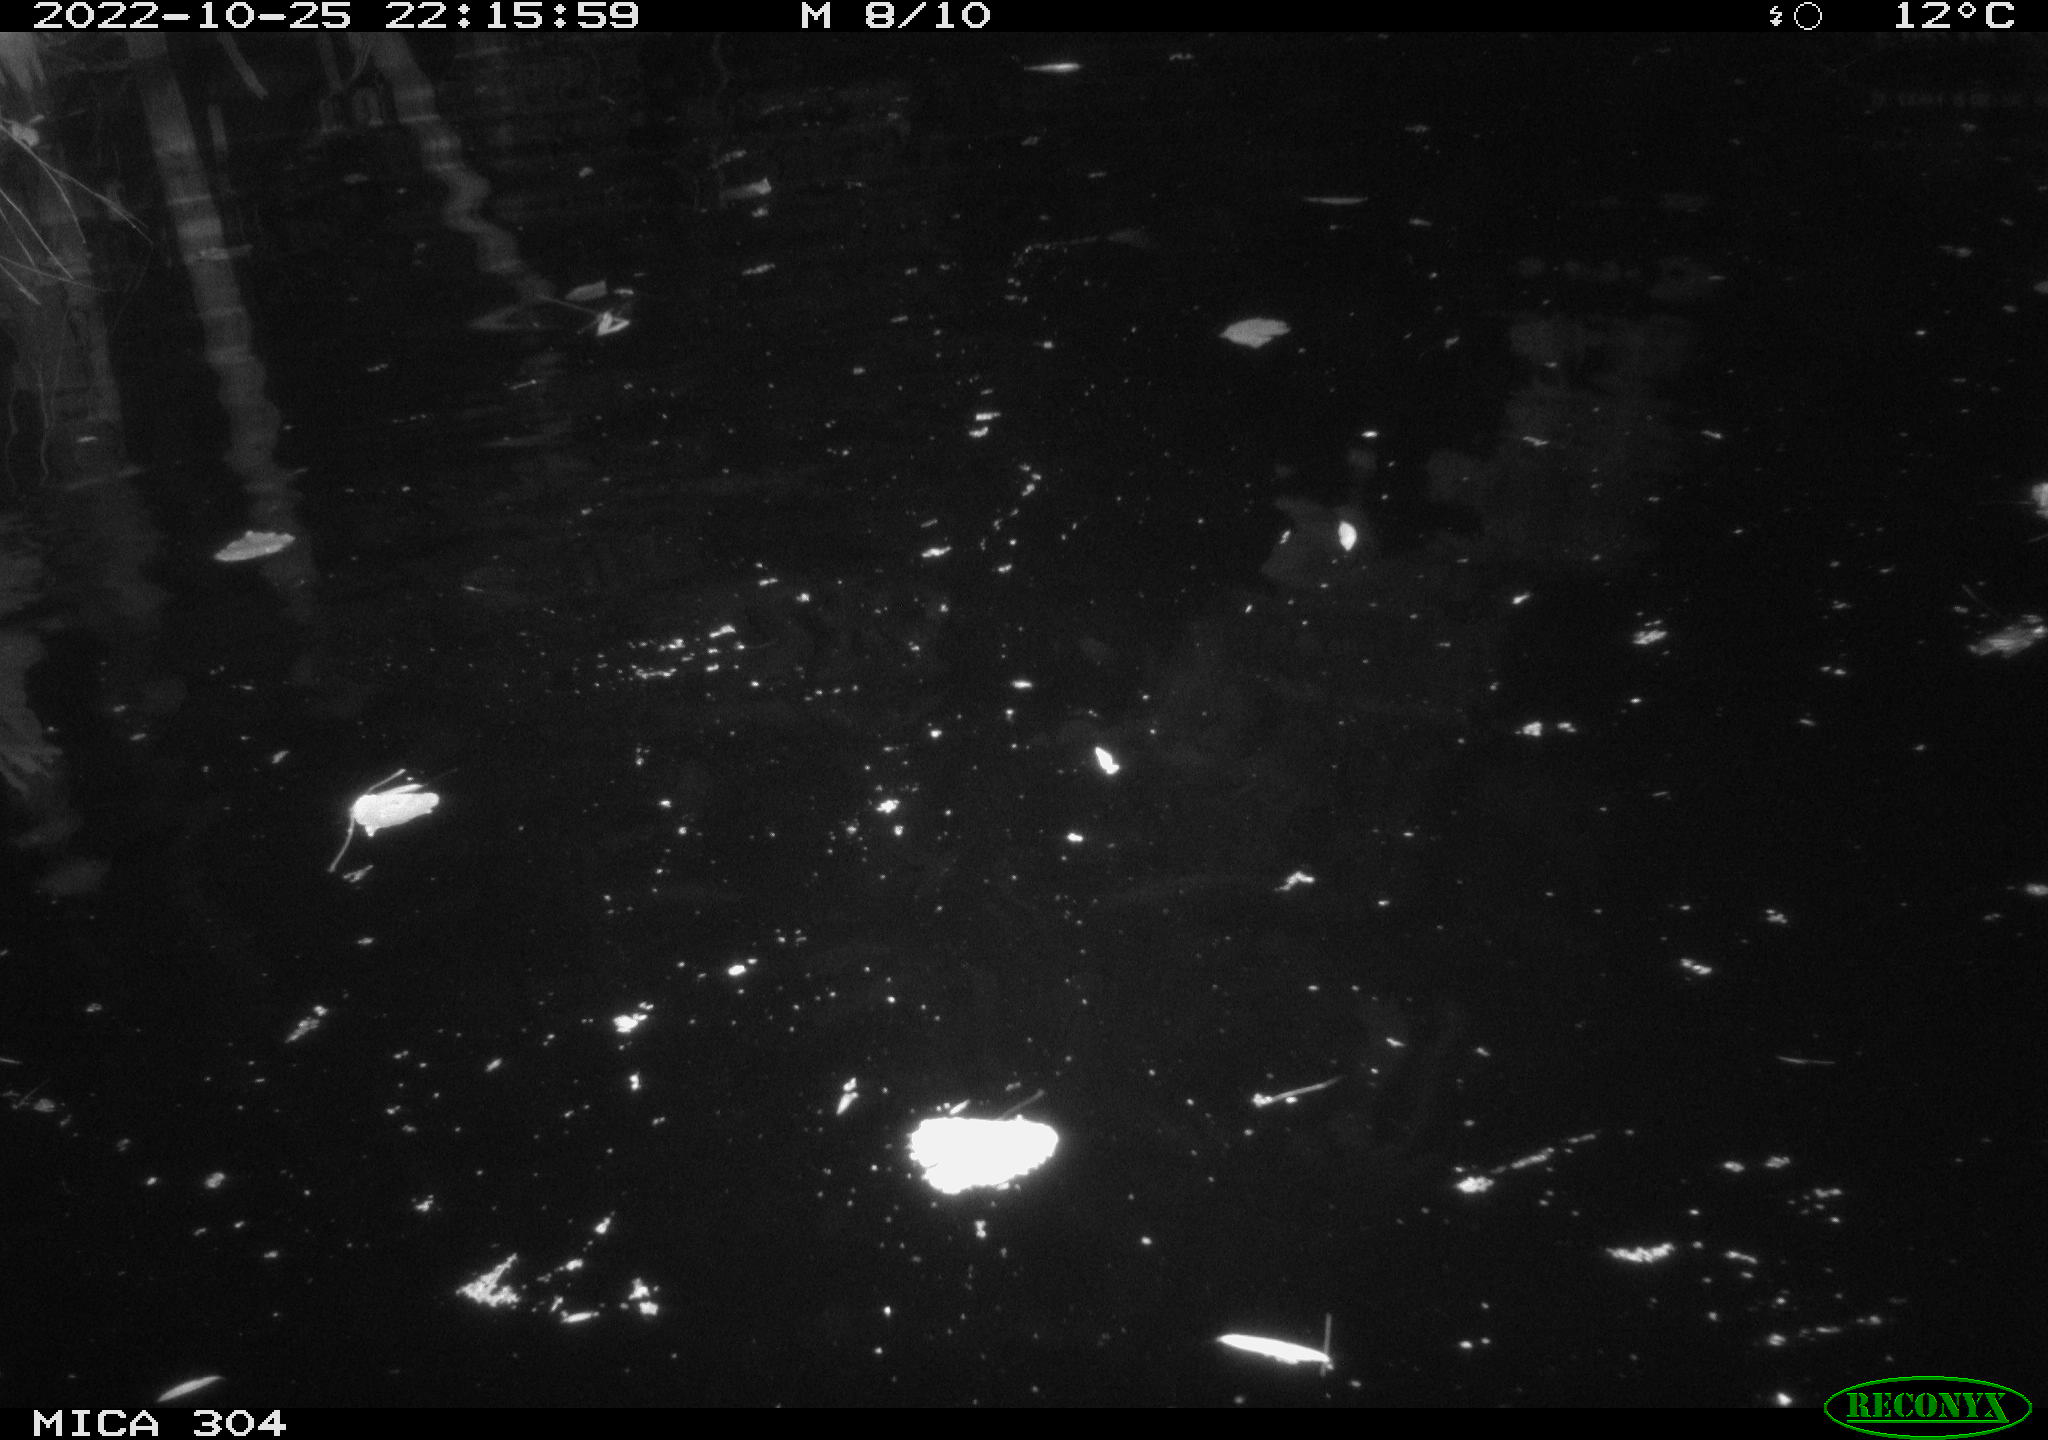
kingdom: Animalia
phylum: Chordata
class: Mammalia
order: Rodentia
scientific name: Rodentia
